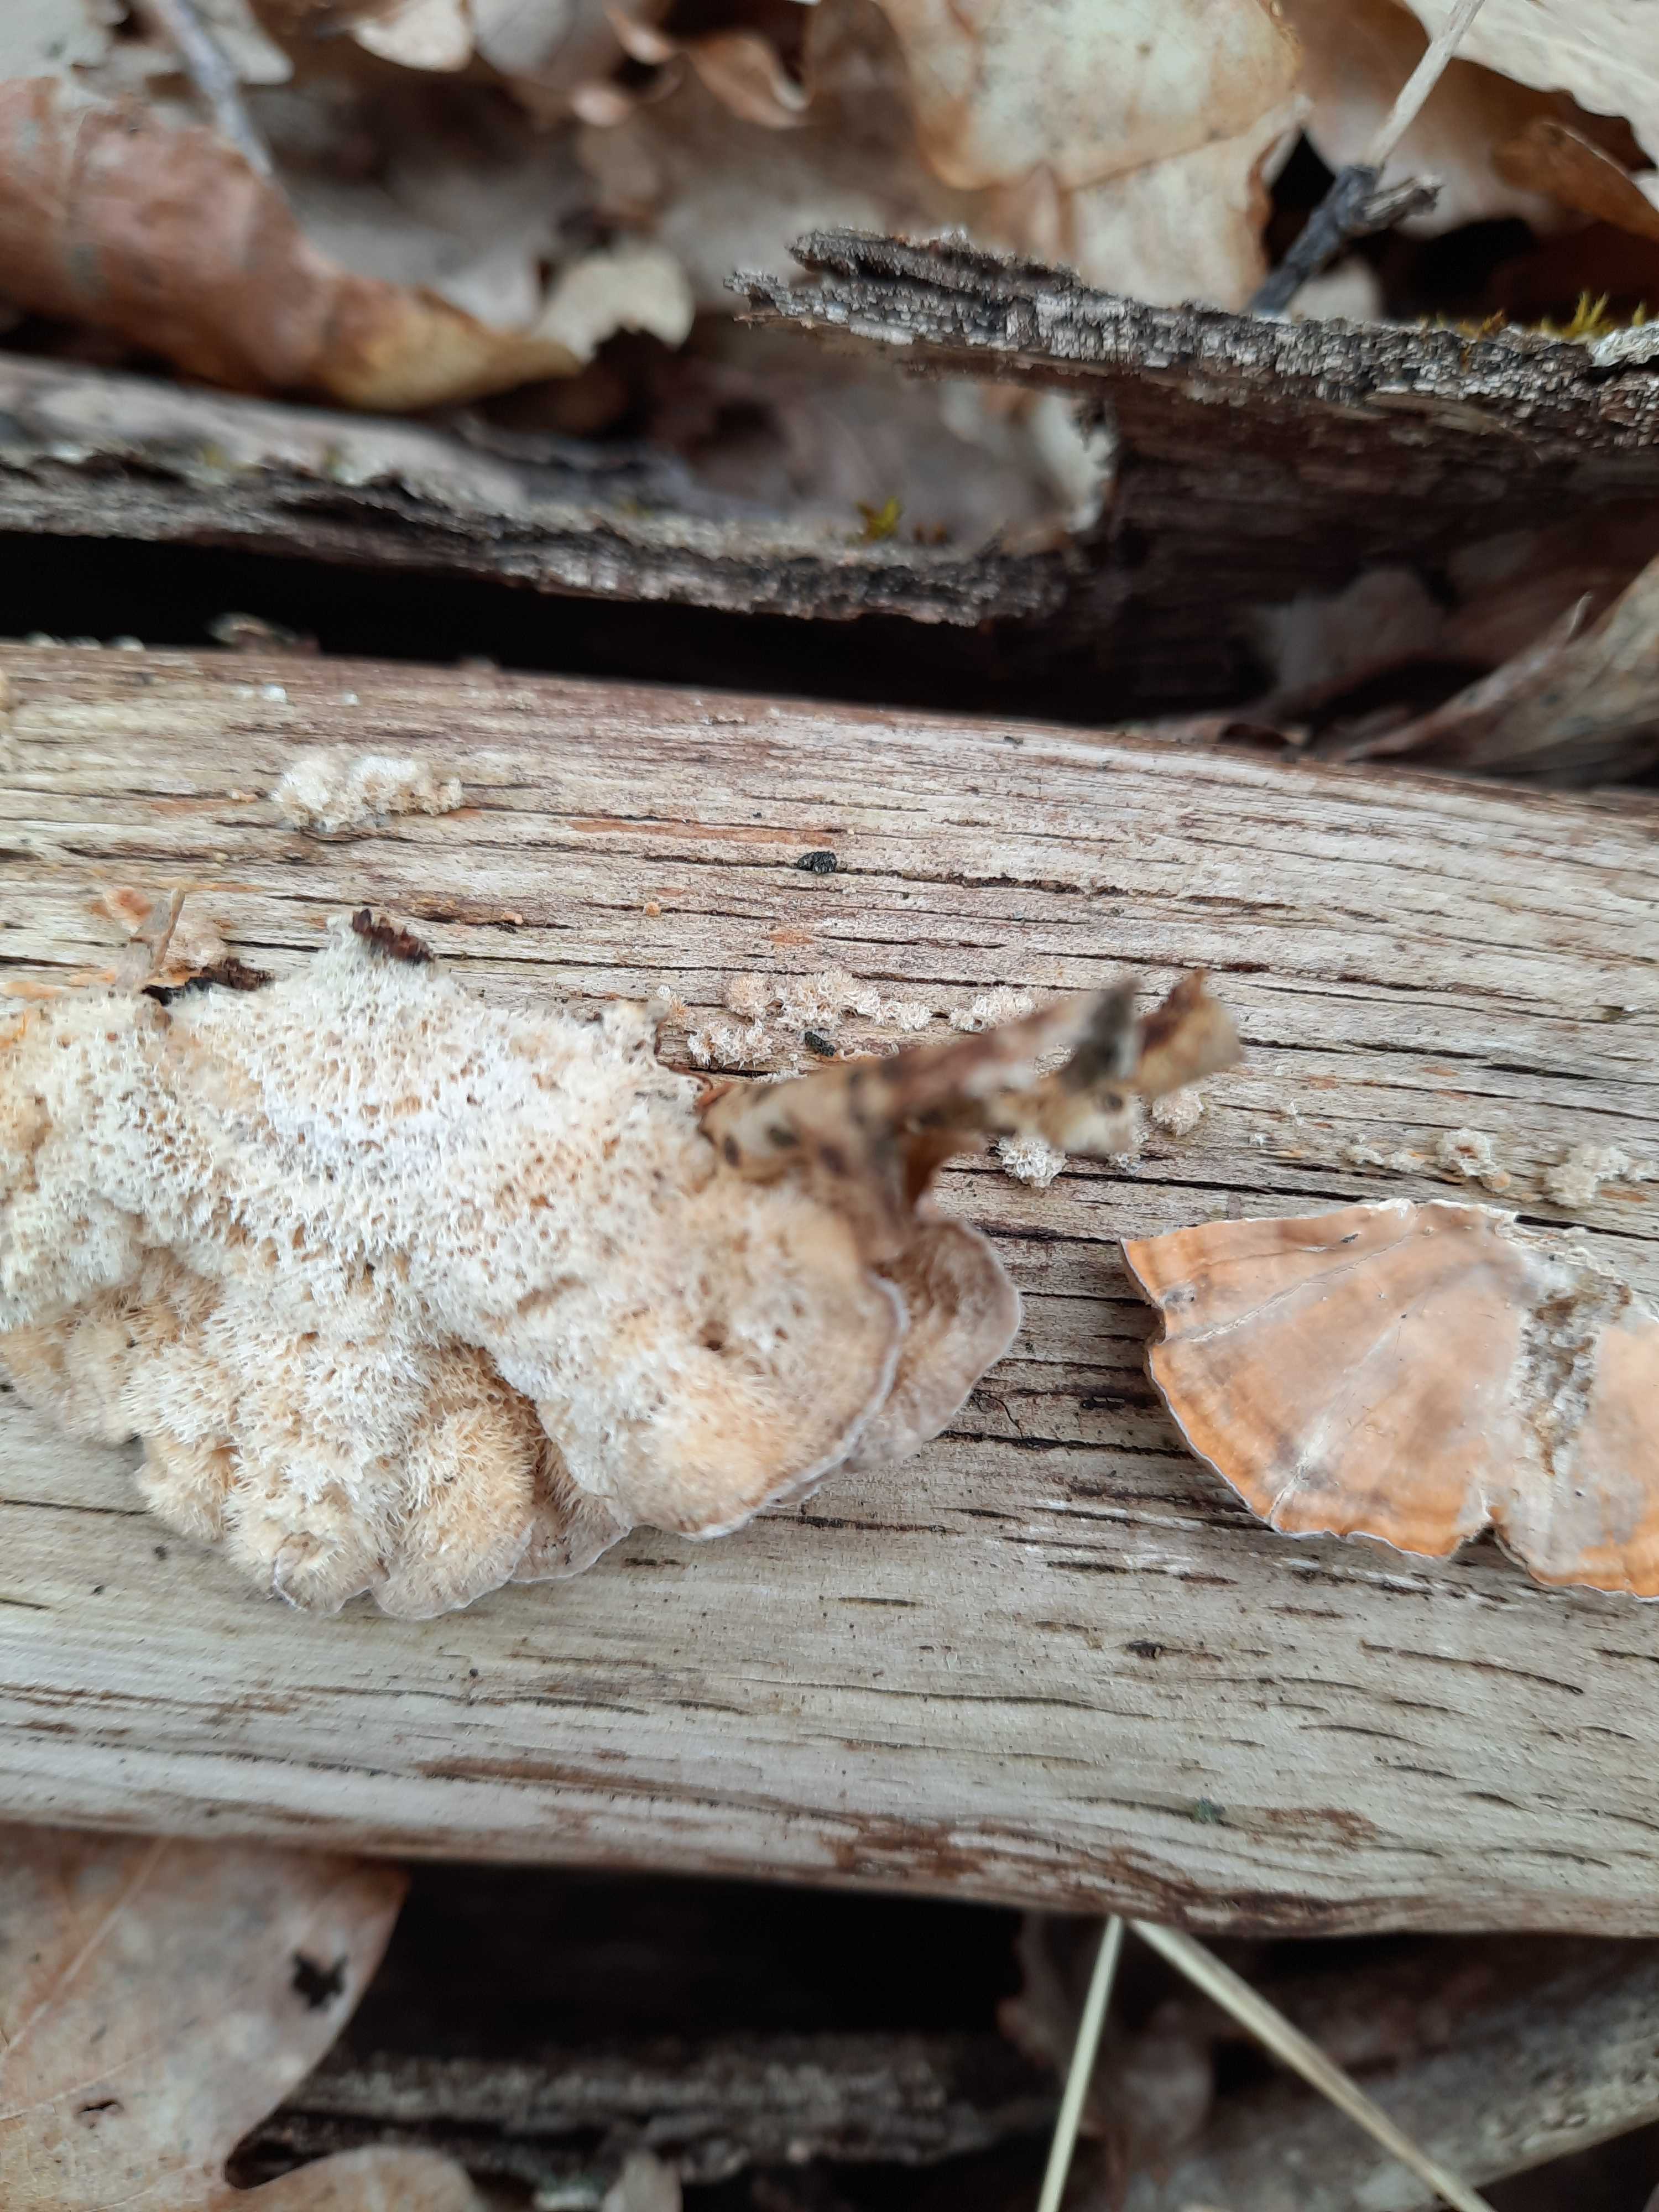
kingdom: Fungi
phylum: Basidiomycota
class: Agaricomycetes
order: Russulales
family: Stereaceae
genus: Stereum
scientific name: Stereum hirsutum
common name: håret lædersvamp
